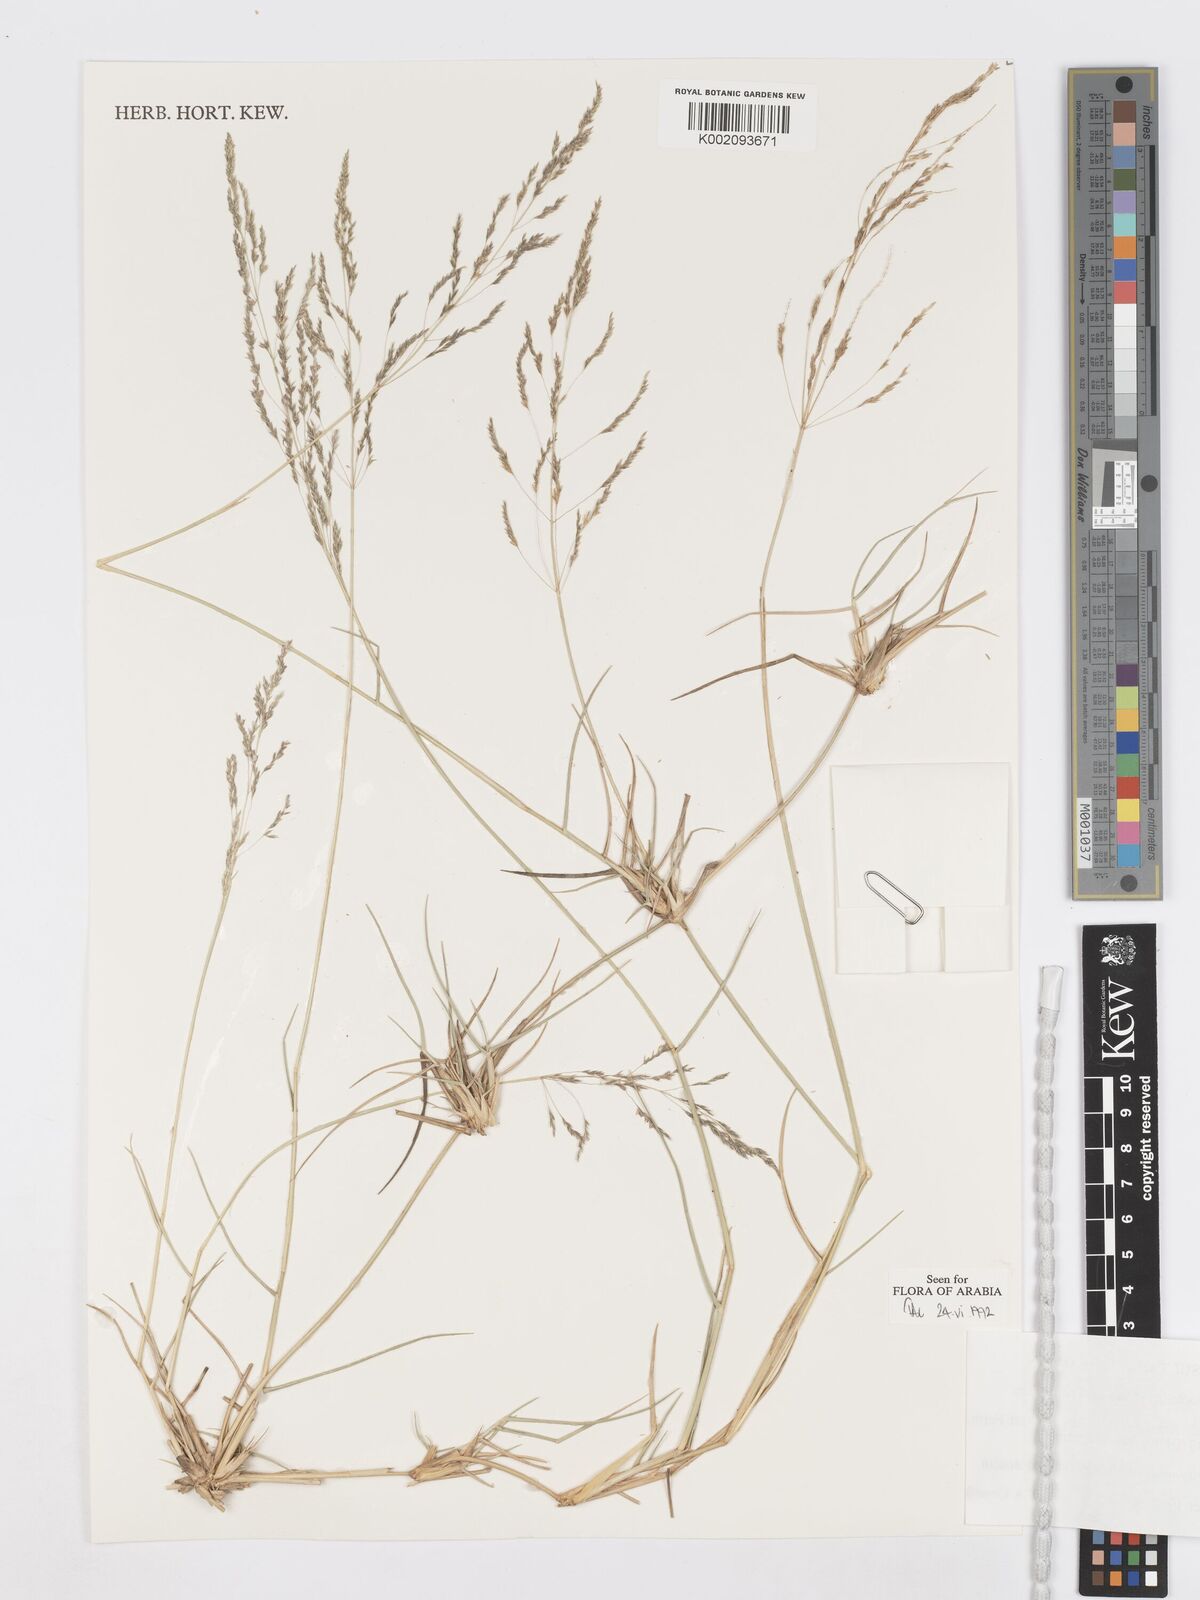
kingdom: Plantae
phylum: Tracheophyta
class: Liliopsida
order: Poales
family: Poaceae
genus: Sporobolus
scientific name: Sporobolus ioclados
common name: Pan dropseed
